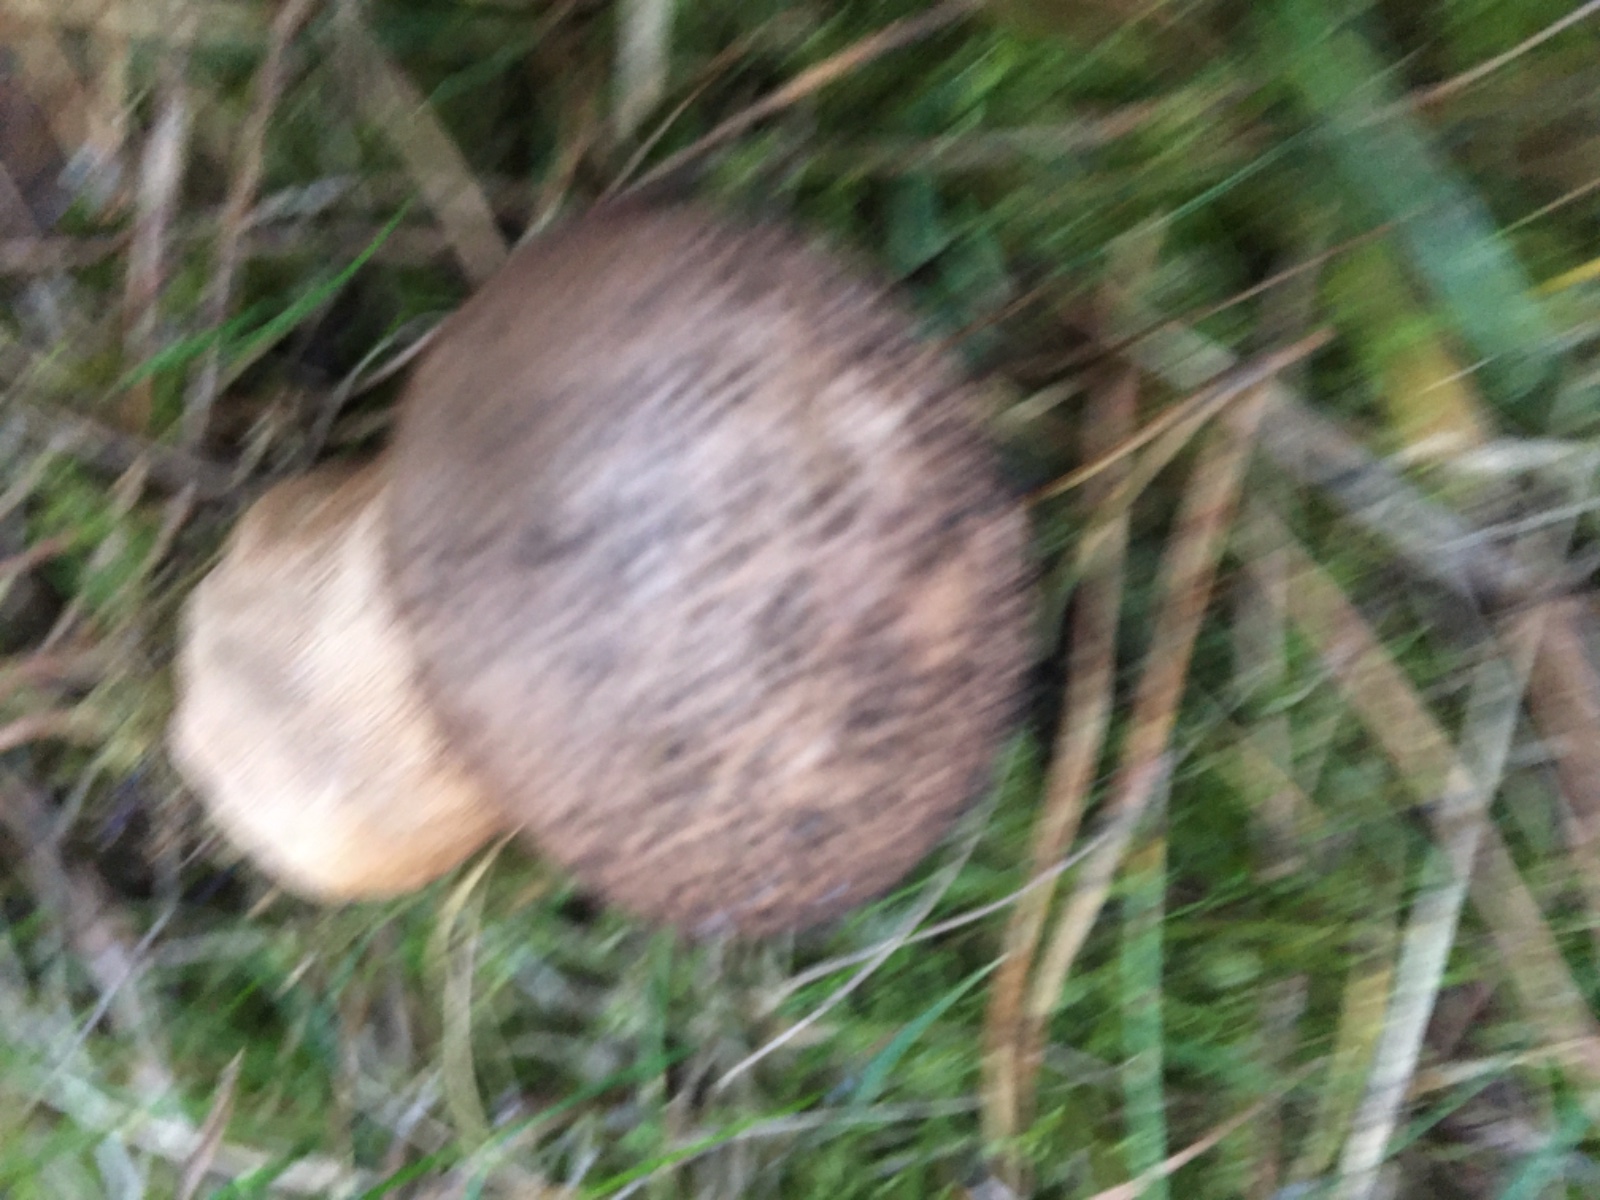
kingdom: Fungi
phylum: Basidiomycota
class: Agaricomycetes
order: Agaricales
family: Lycoperdaceae
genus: Lycoperdon
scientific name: Lycoperdon nigrescens
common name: sortagtig støvbold
